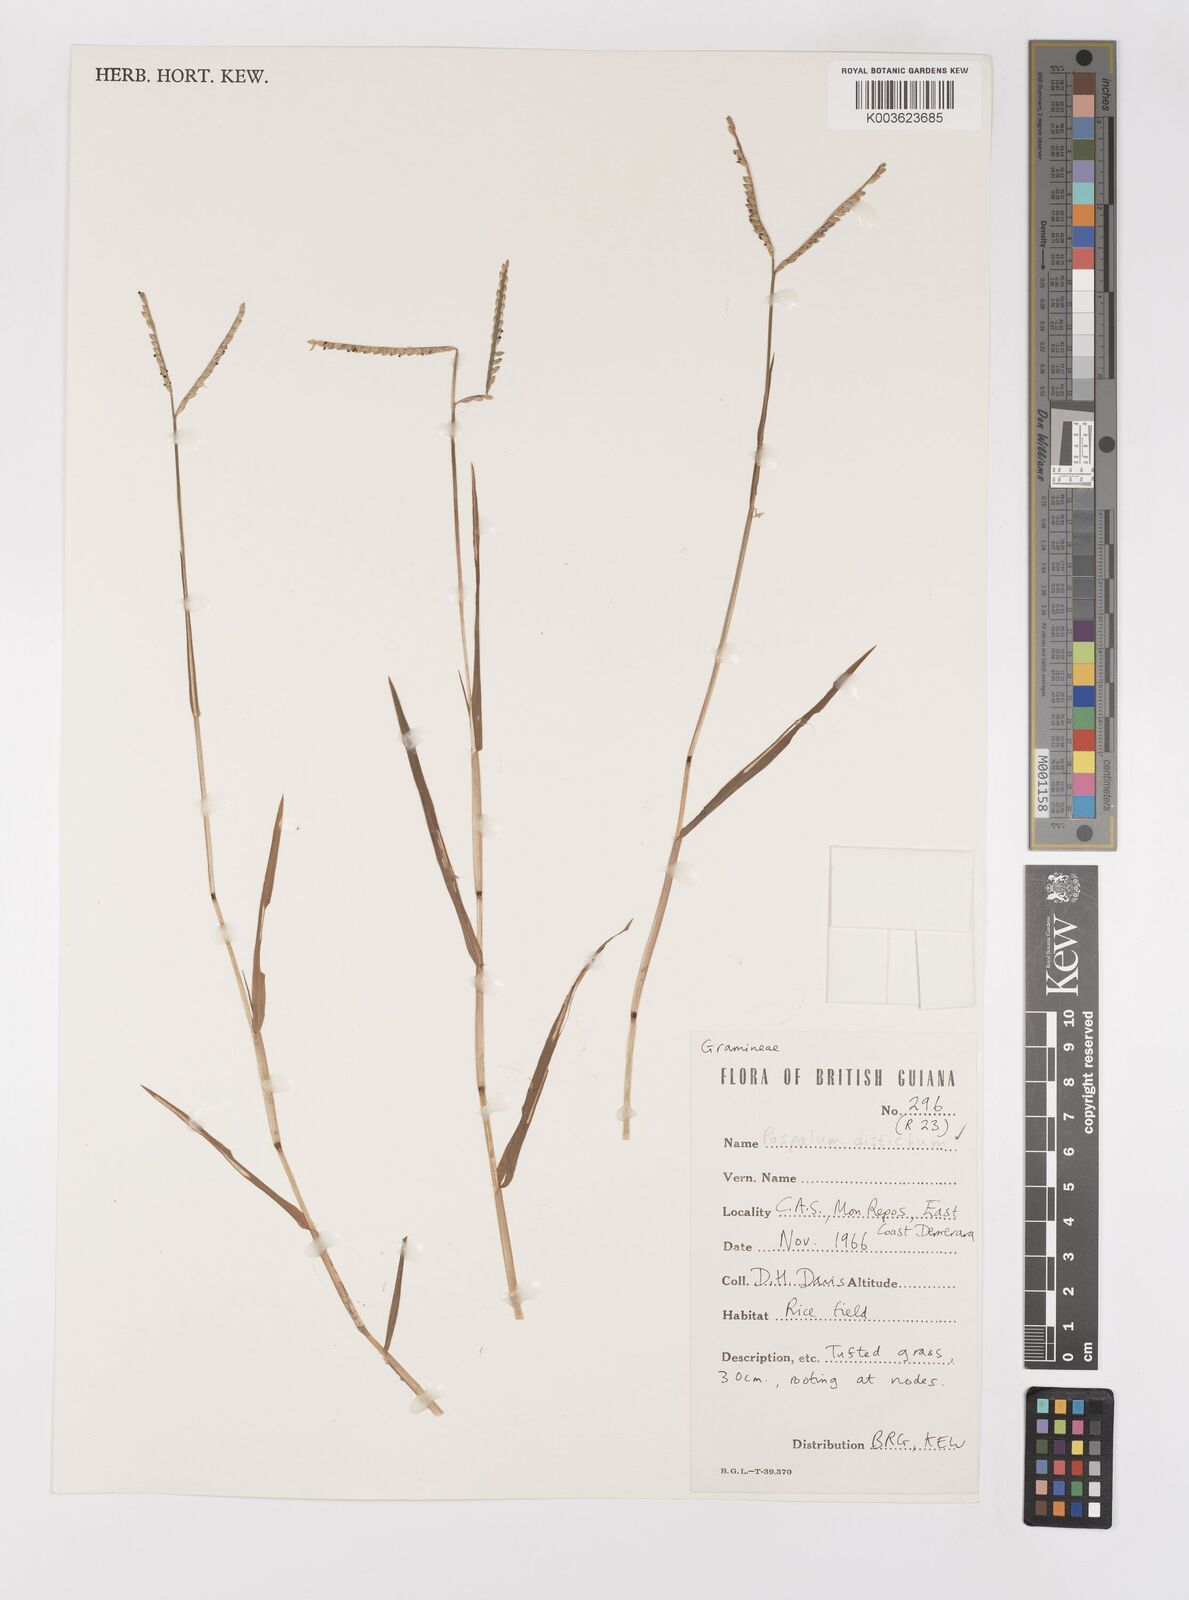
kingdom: Plantae
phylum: Tracheophyta
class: Liliopsida
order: Poales
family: Poaceae
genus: Paspalum
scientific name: Paspalum distichum
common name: Knotgrass
